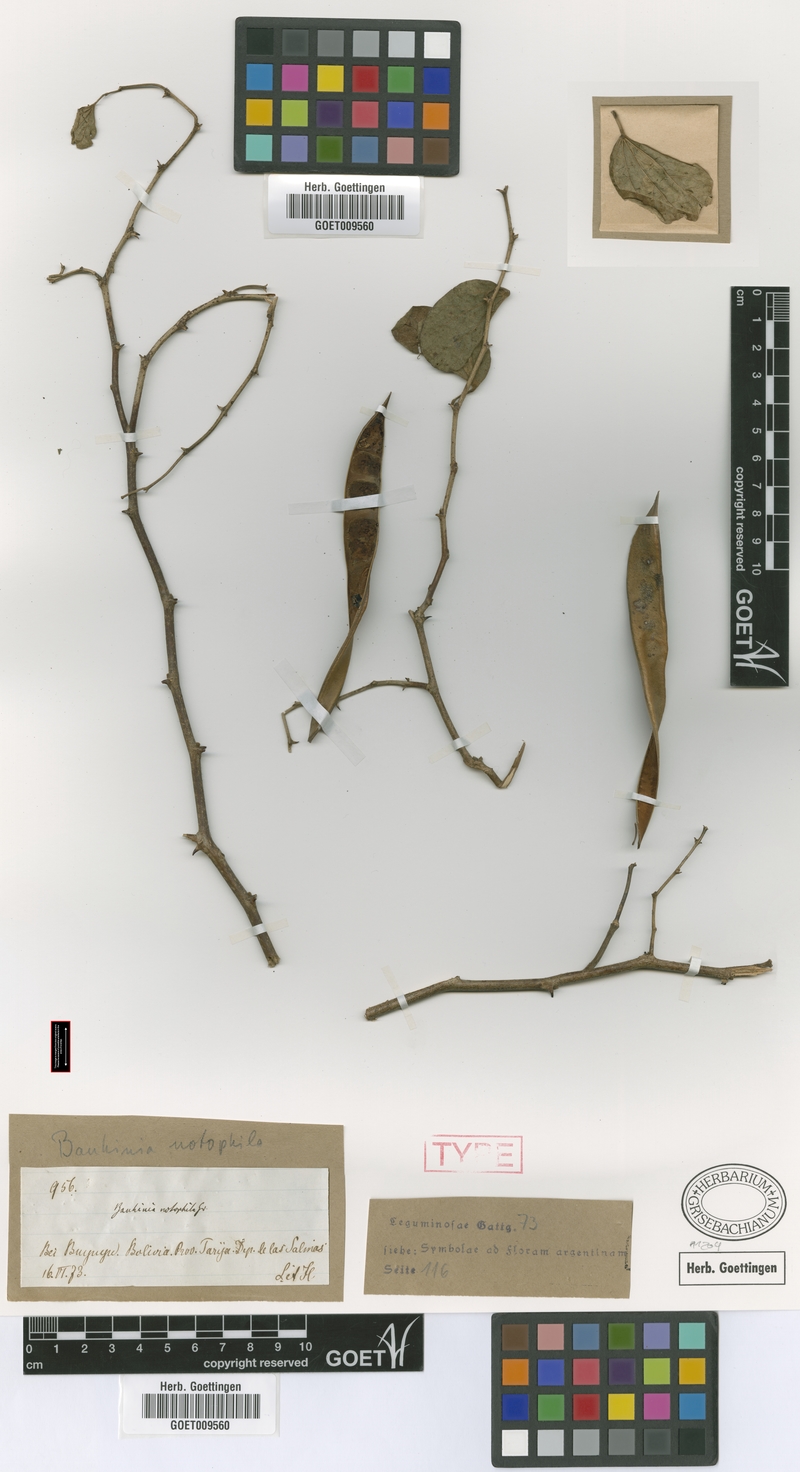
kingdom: Plantae
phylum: Tracheophyta
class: Magnoliopsida
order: Fabales
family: Fabaceae
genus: Bauhinia
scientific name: Bauhinia mollis
